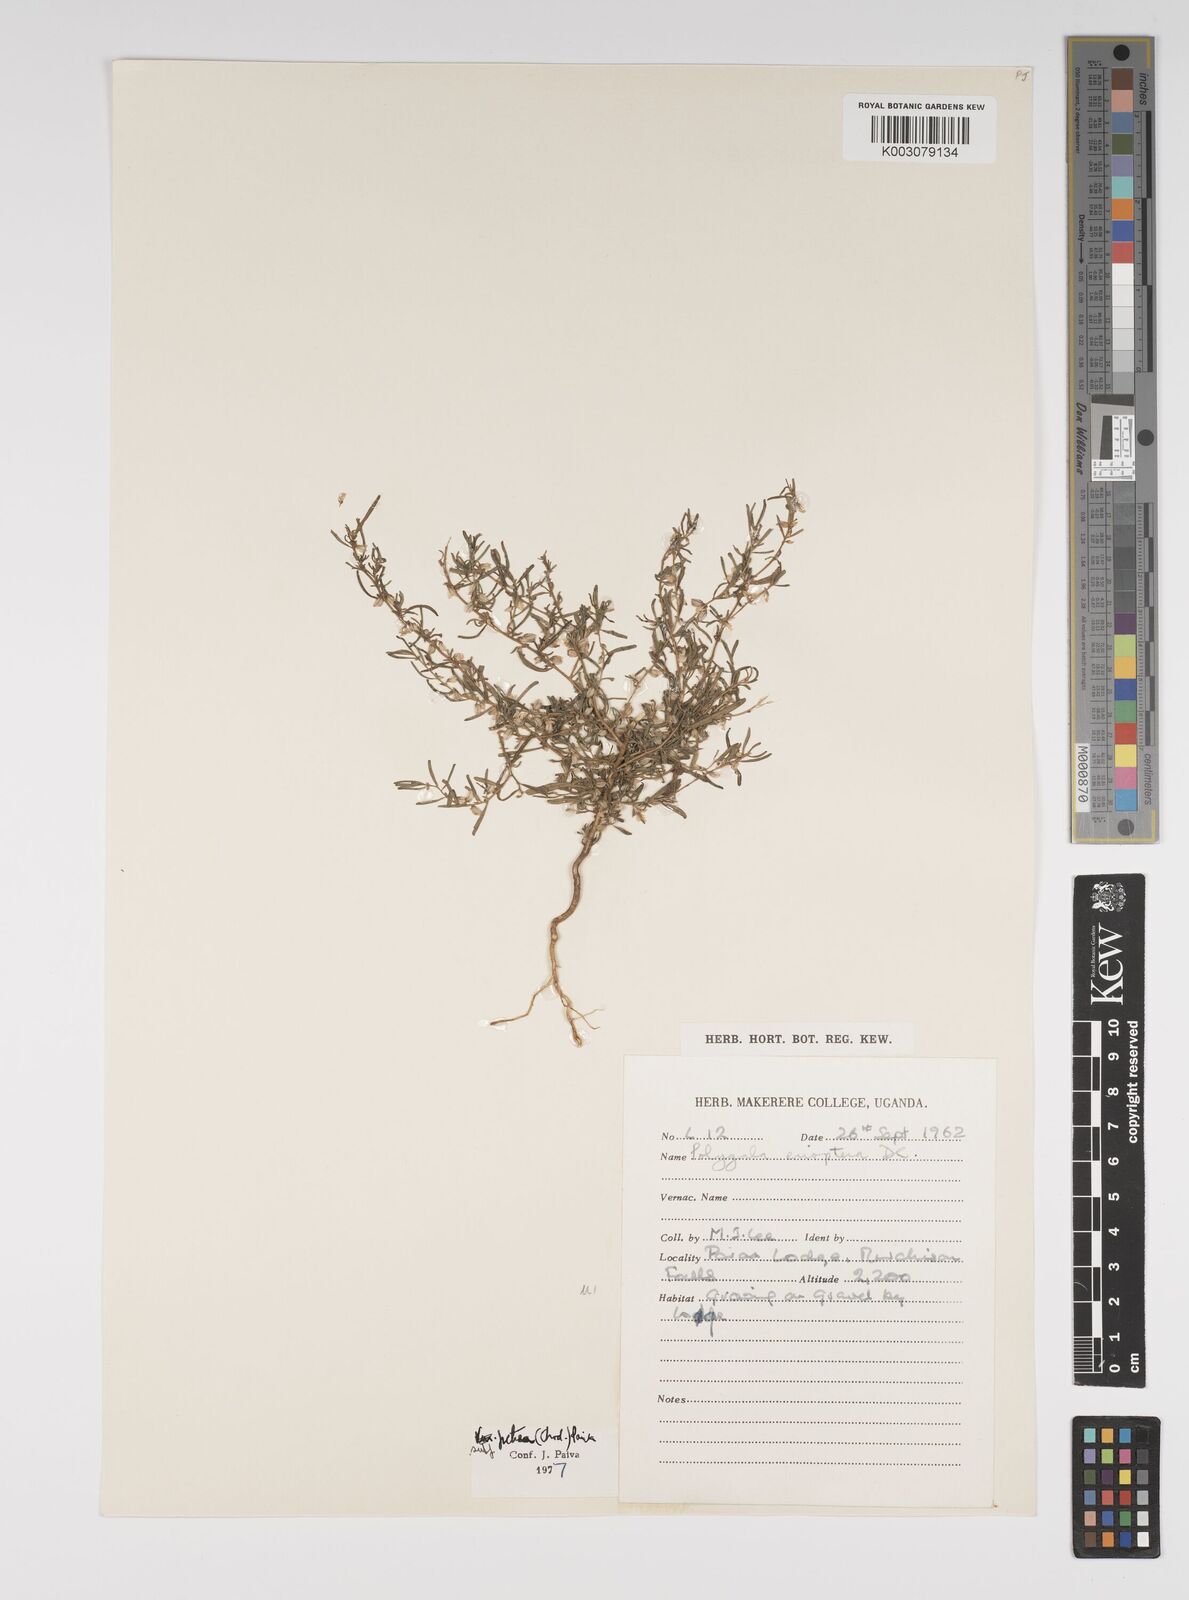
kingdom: Plantae
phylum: Tracheophyta
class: Magnoliopsida
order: Fabales
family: Polygalaceae
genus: Polygala
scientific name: Polygala erioptera
